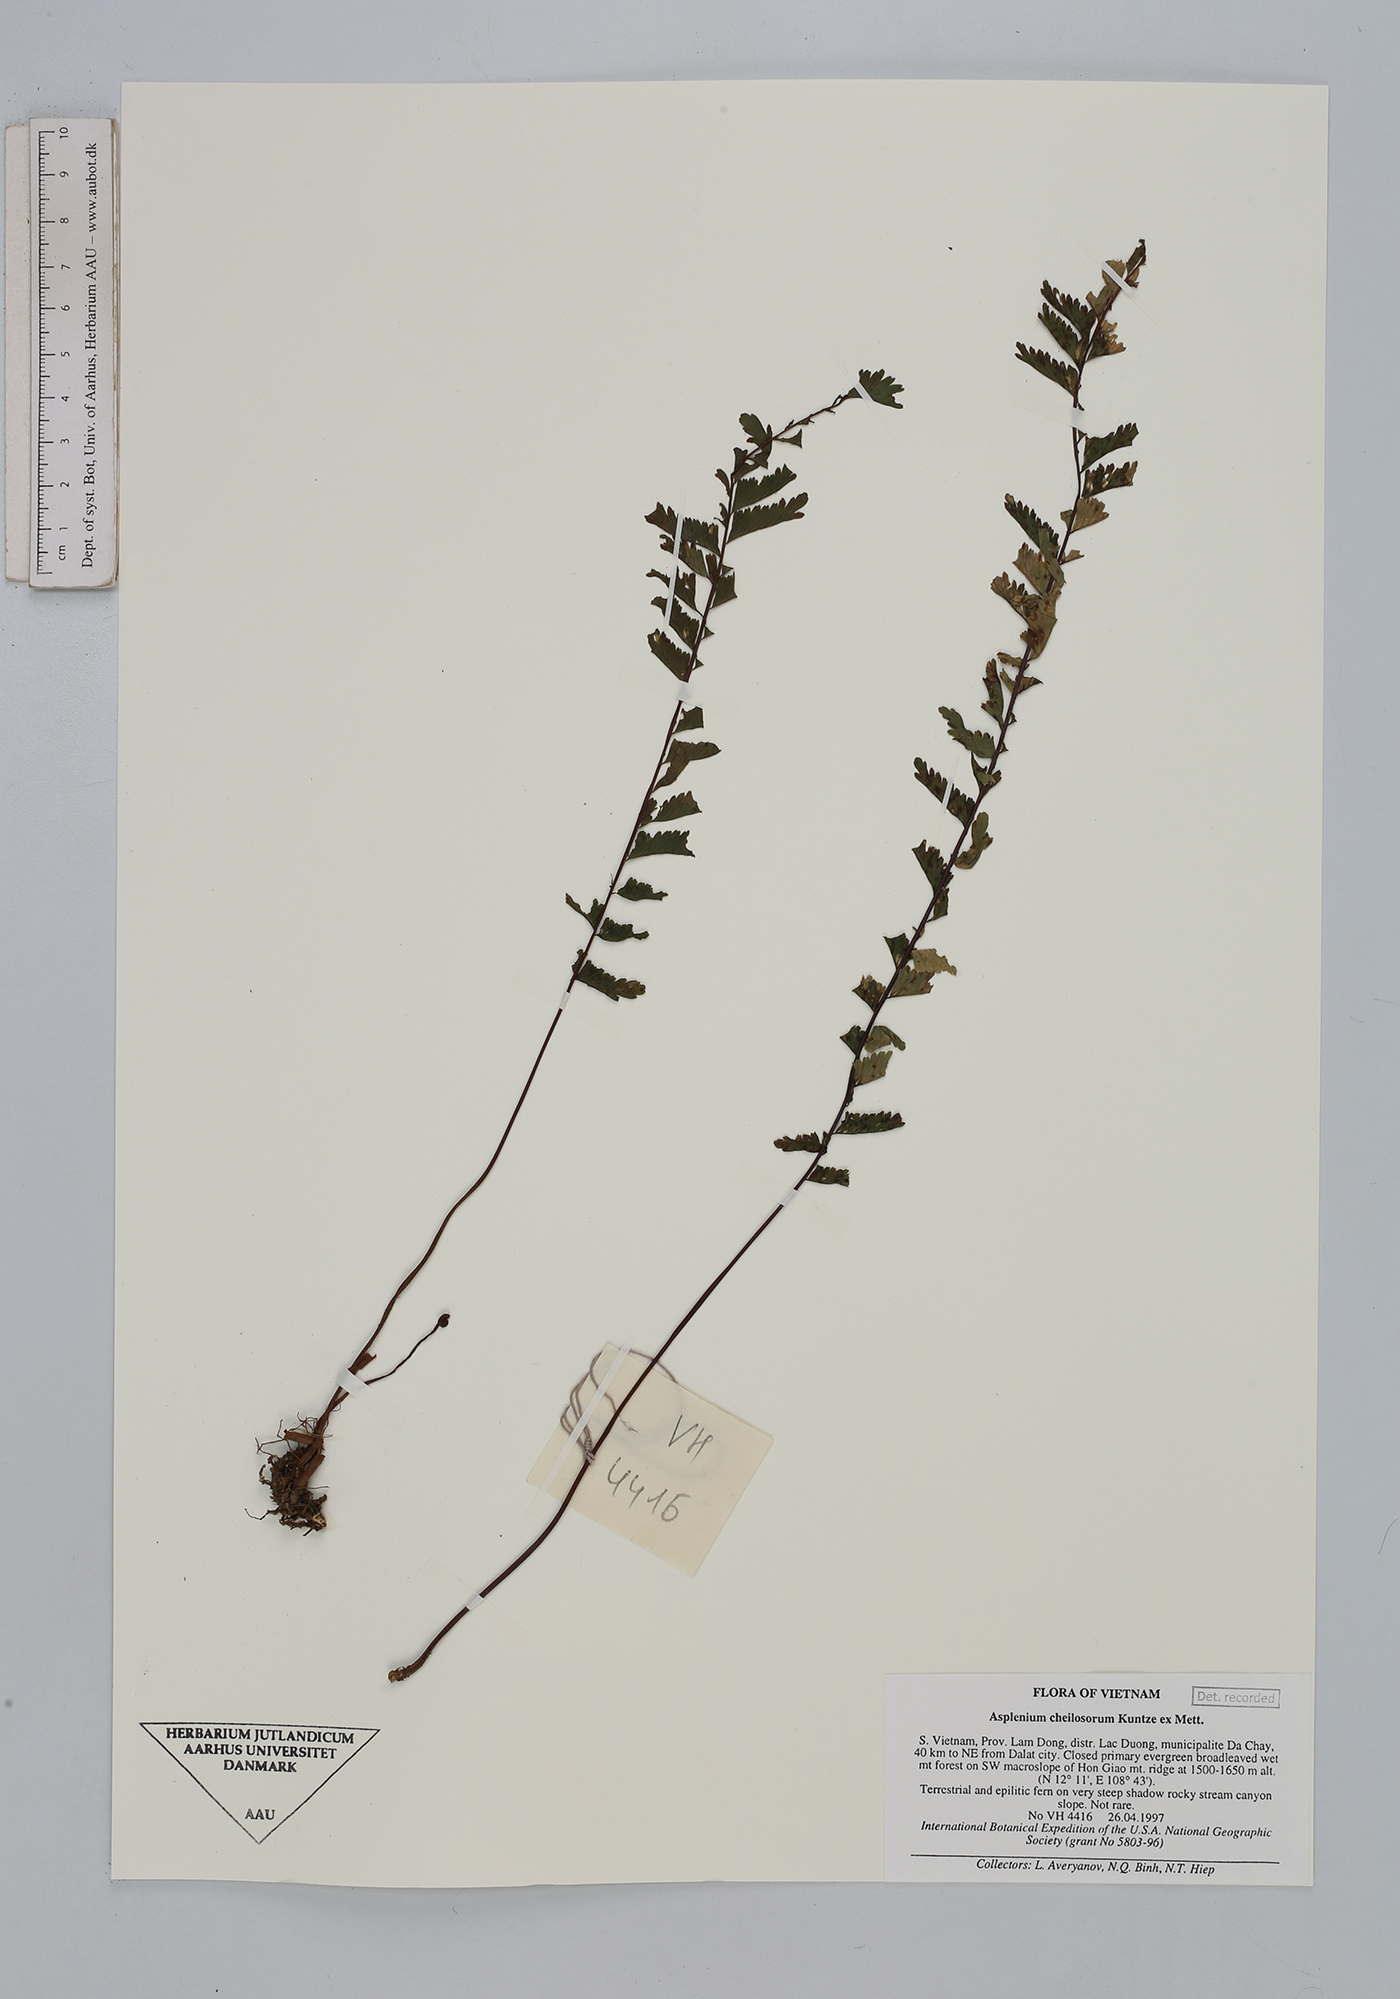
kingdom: Plantae
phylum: Tracheophyta
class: Polypodiopsida
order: Polypodiales
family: Aspleniaceae
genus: Hymenasplenium
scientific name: Hymenasplenium cheilosorum
